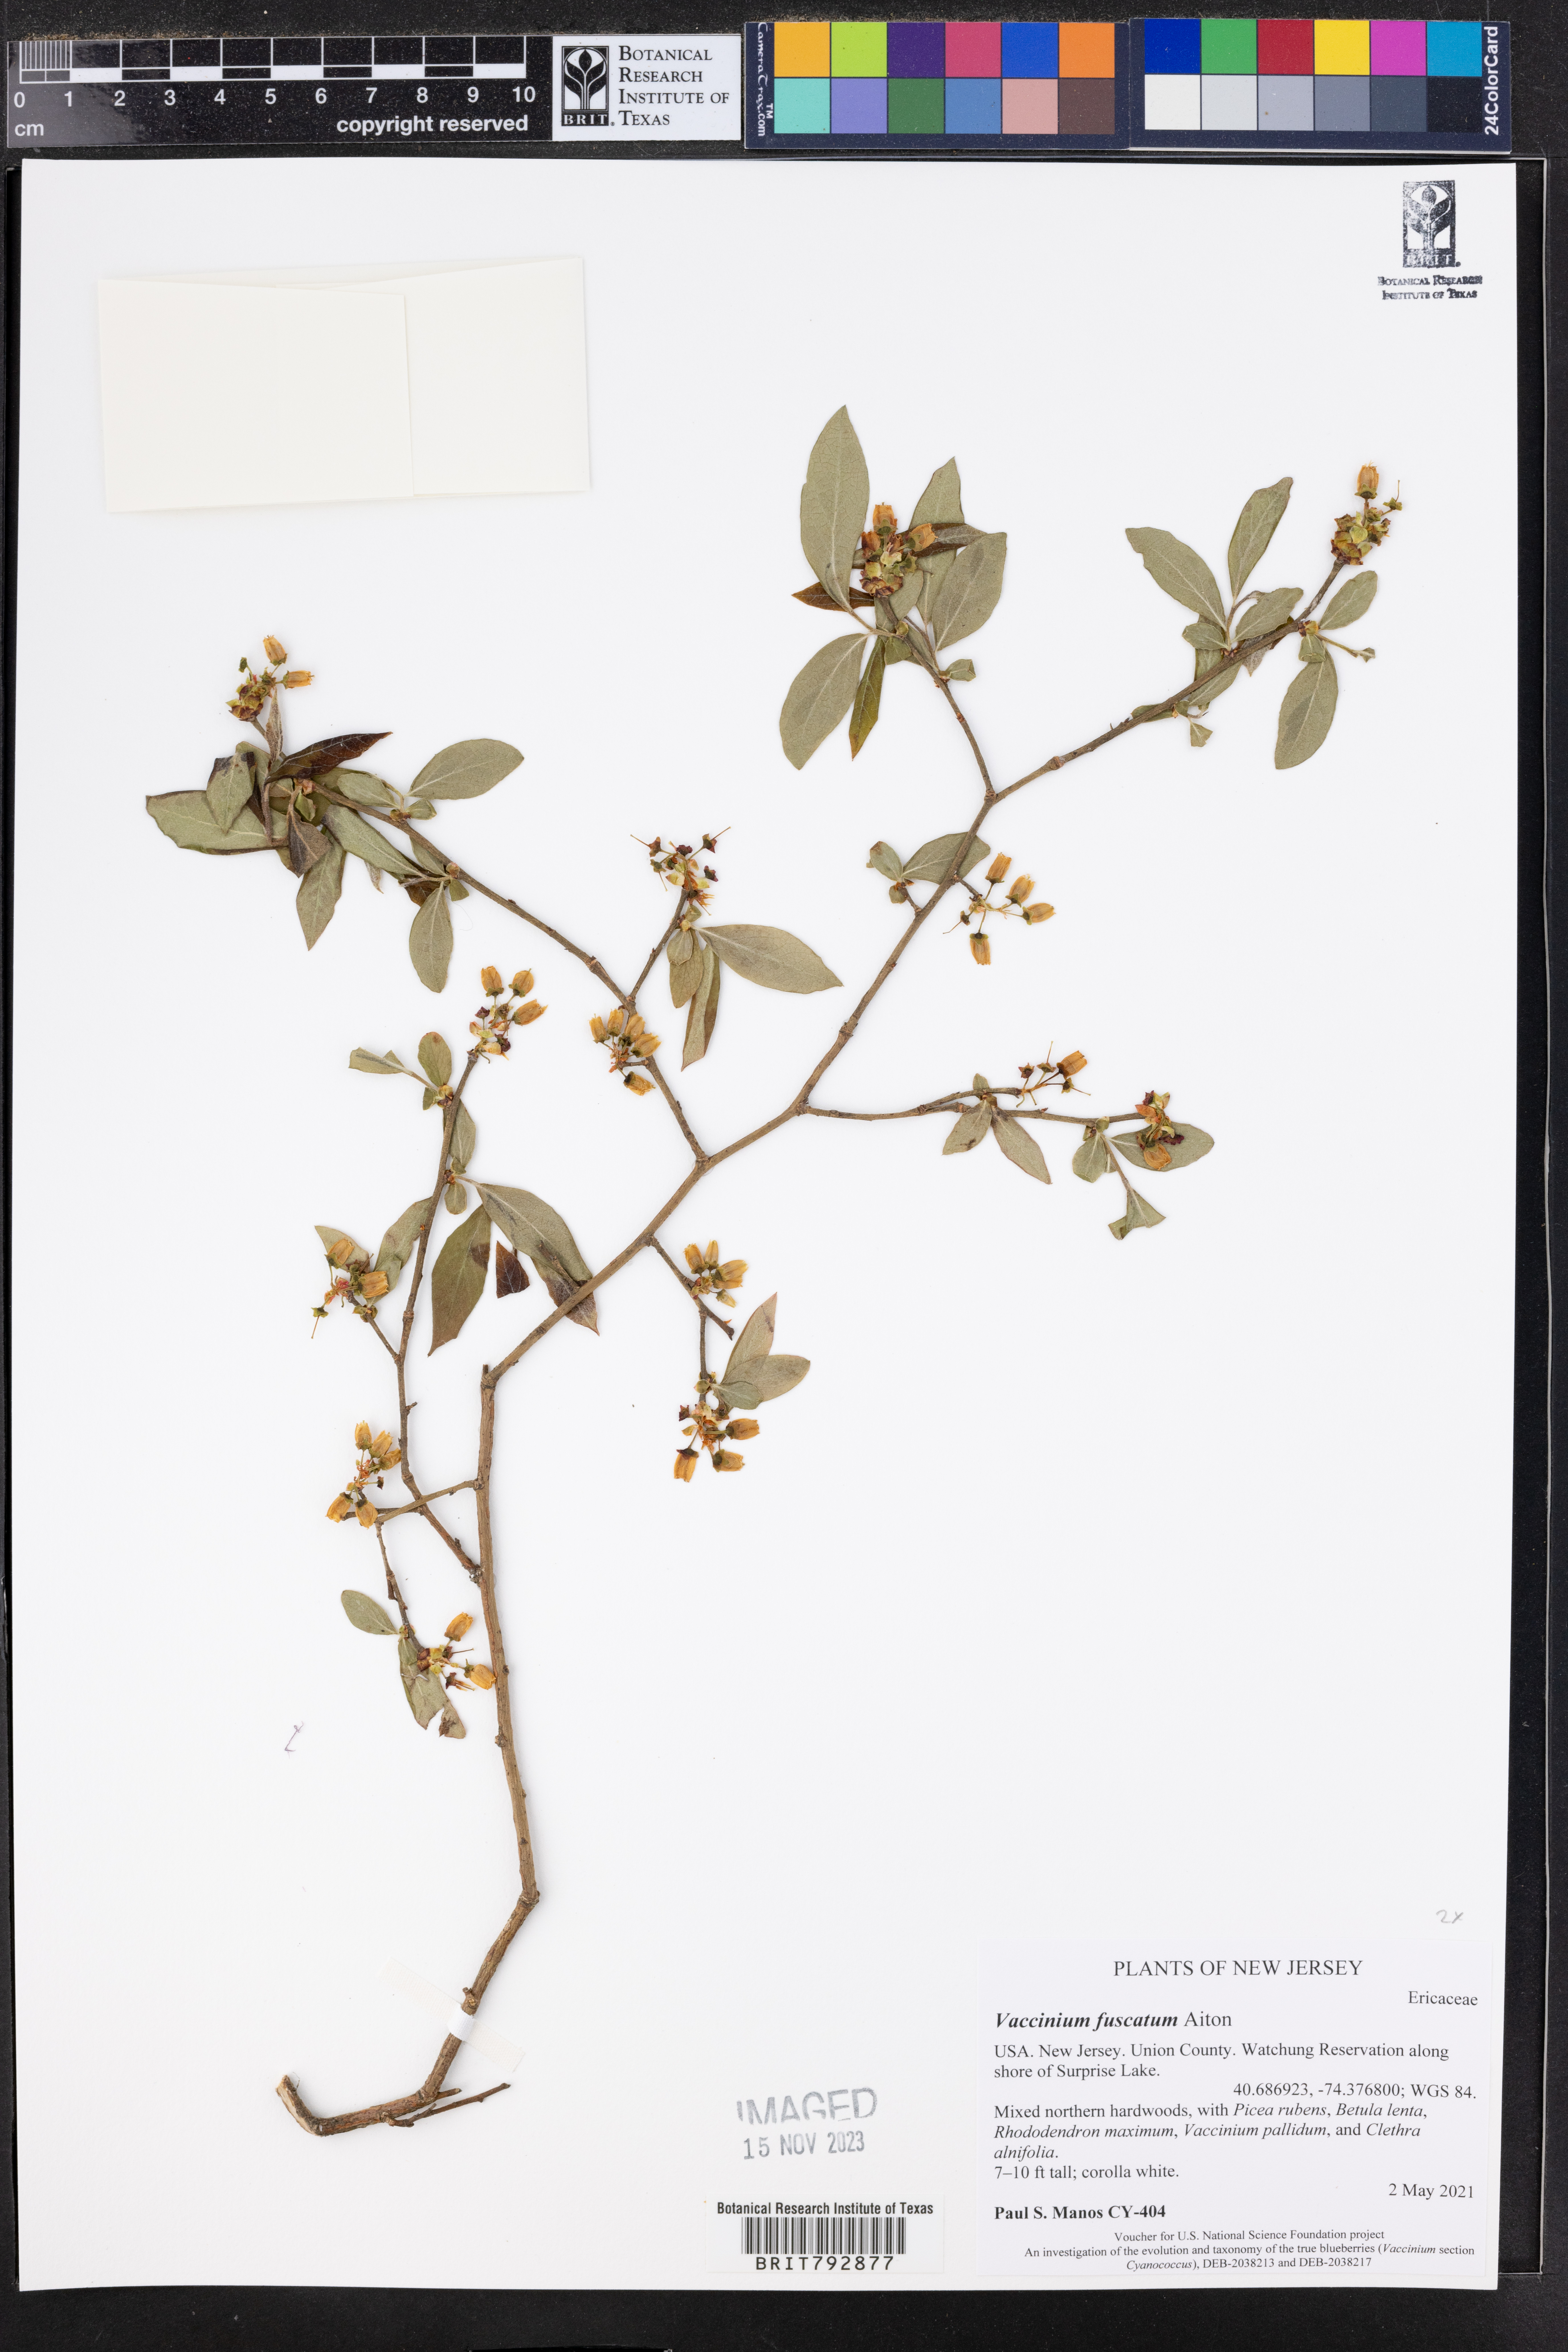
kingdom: Plantae
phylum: Tracheophyta
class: Magnoliopsida
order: Ericales
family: Ericaceae
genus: Vaccinium
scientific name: Vaccinium corymbosum
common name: Blueberry
